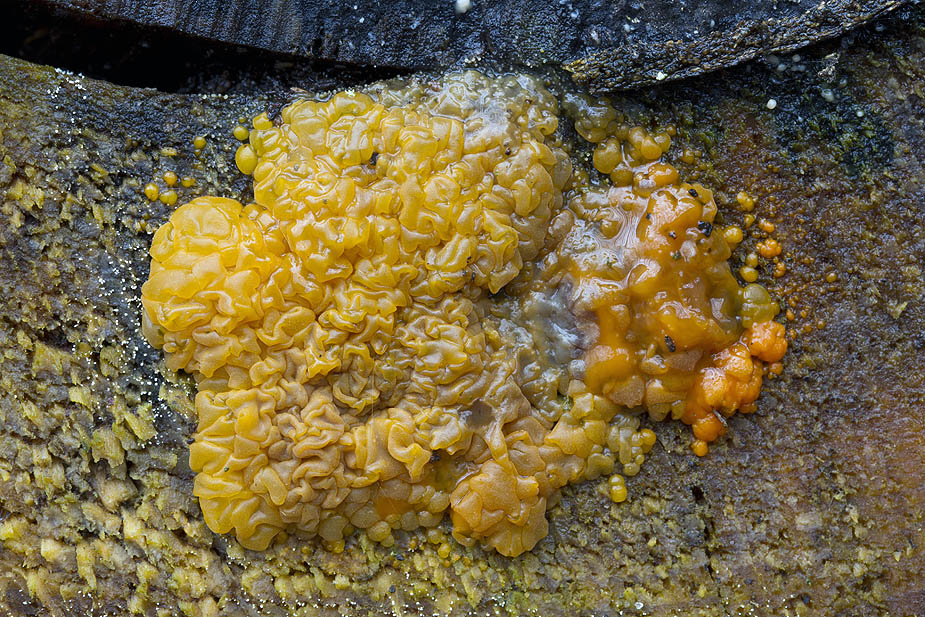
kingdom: Fungi
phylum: Basidiomycota
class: Dacrymycetes
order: Dacrymycetales
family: Dacrymycetaceae
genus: Dacrymyces
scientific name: Dacrymyces stillatus
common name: almindelig tåresvamp
